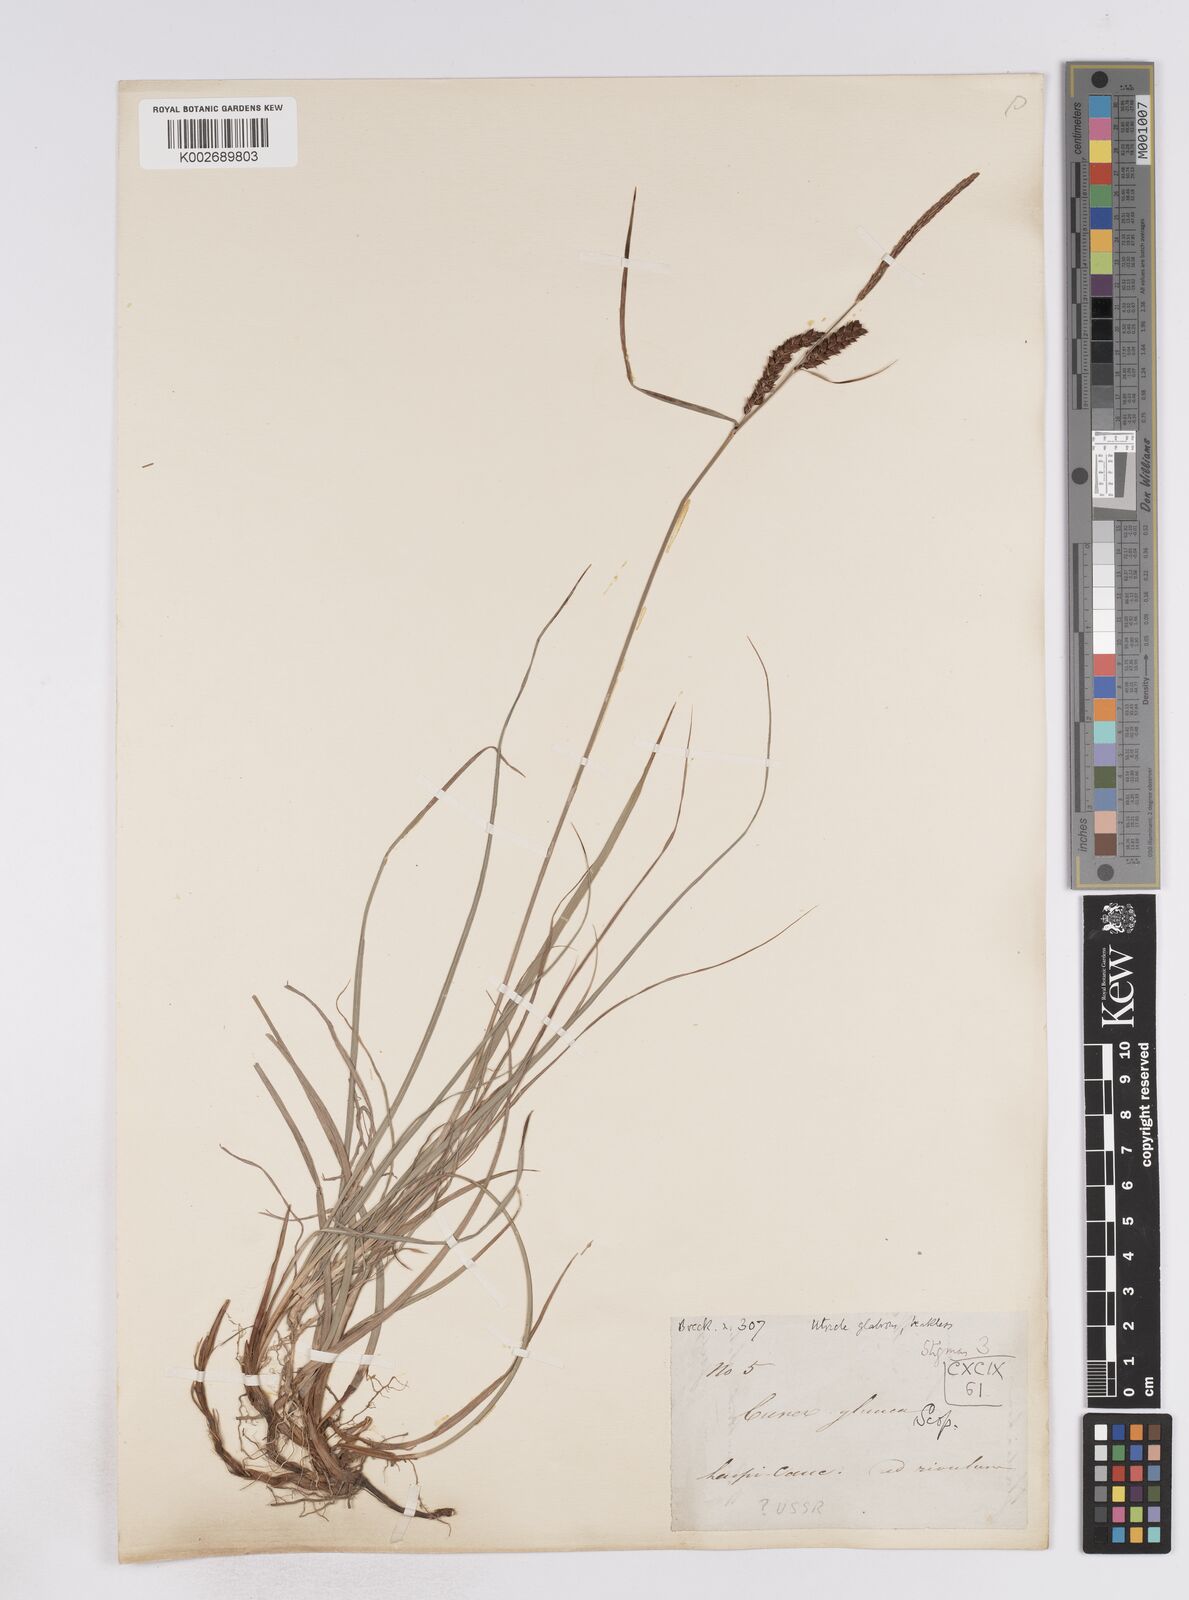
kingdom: Plantae
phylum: Tracheophyta
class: Liliopsida
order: Poales
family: Cyperaceae
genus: Carex
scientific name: Carex flacca
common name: Glaucous sedge
